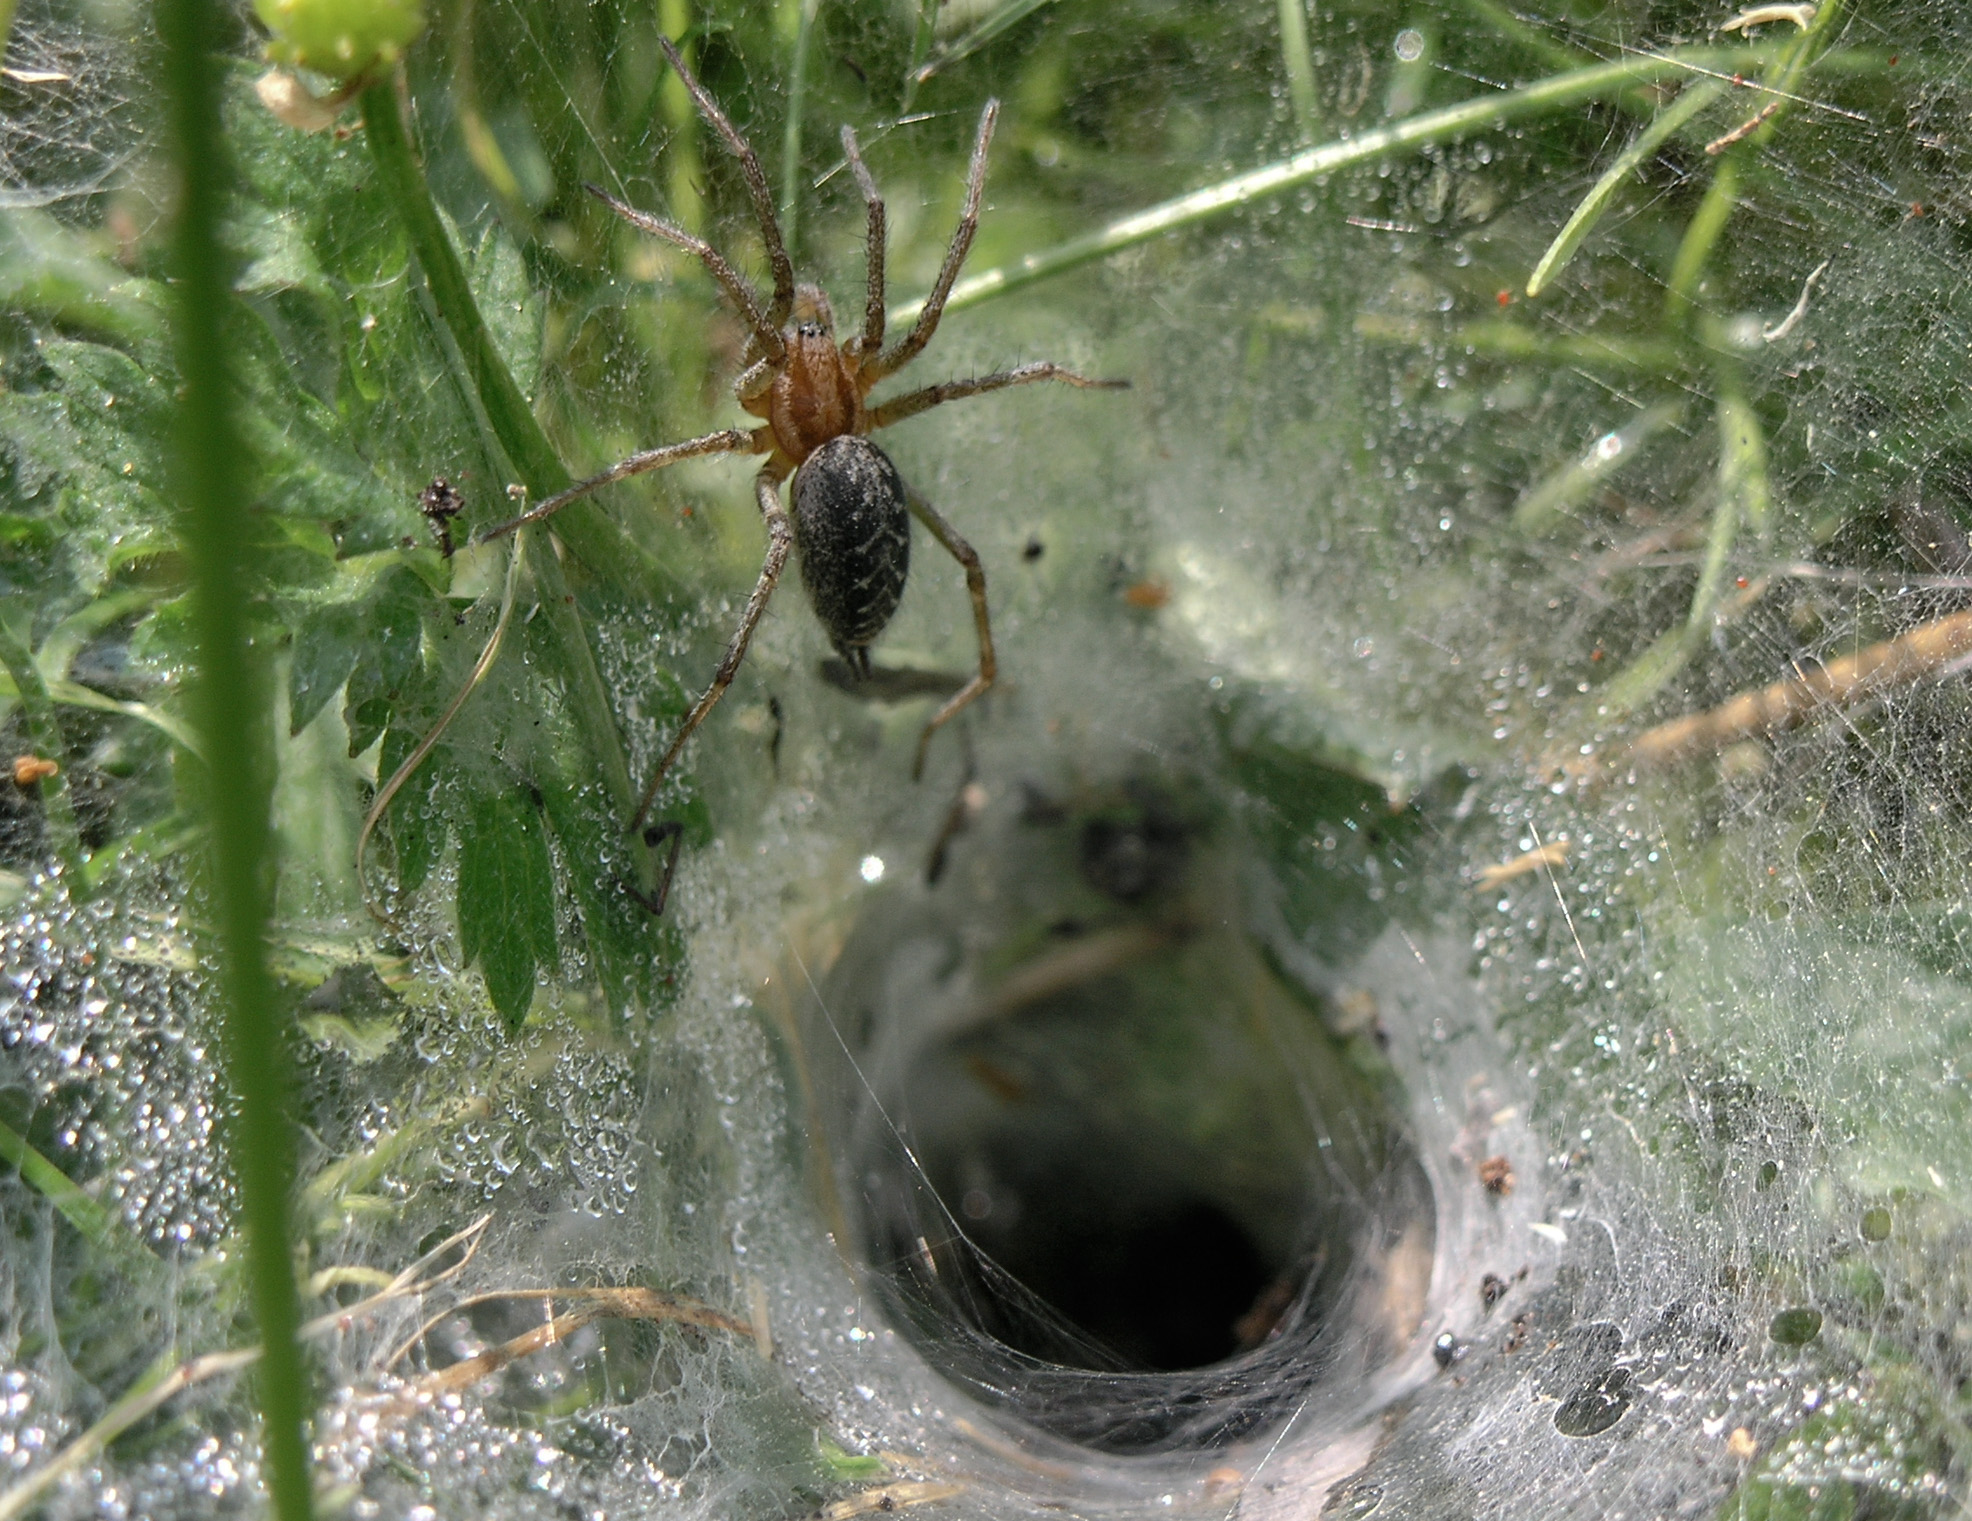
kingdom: Animalia
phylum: Arthropoda
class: Arachnida
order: Araneae
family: Agelenidae
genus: Agelena
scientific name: Agelena labyrinthica
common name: Labyrinth spider
